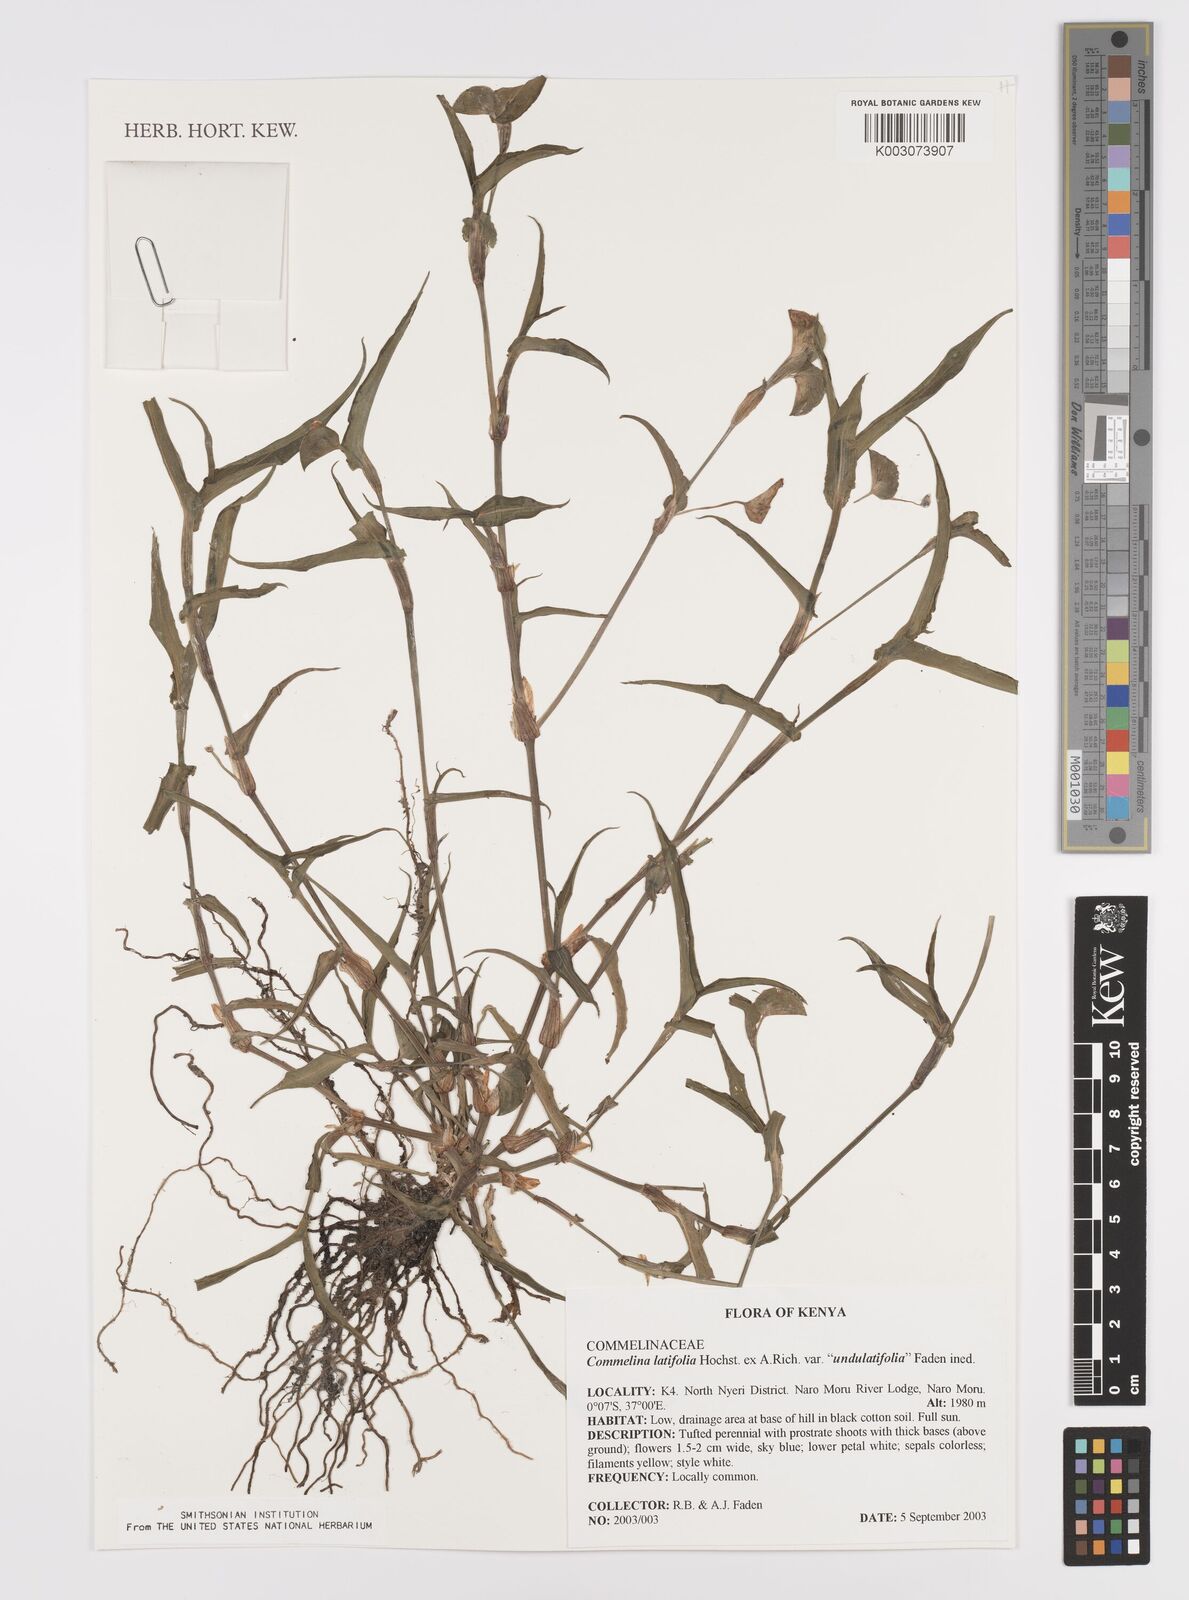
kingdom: Plantae
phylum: Tracheophyta
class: Liliopsida
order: Commelinales
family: Commelinaceae
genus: Commelina
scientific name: Commelina latifolia
